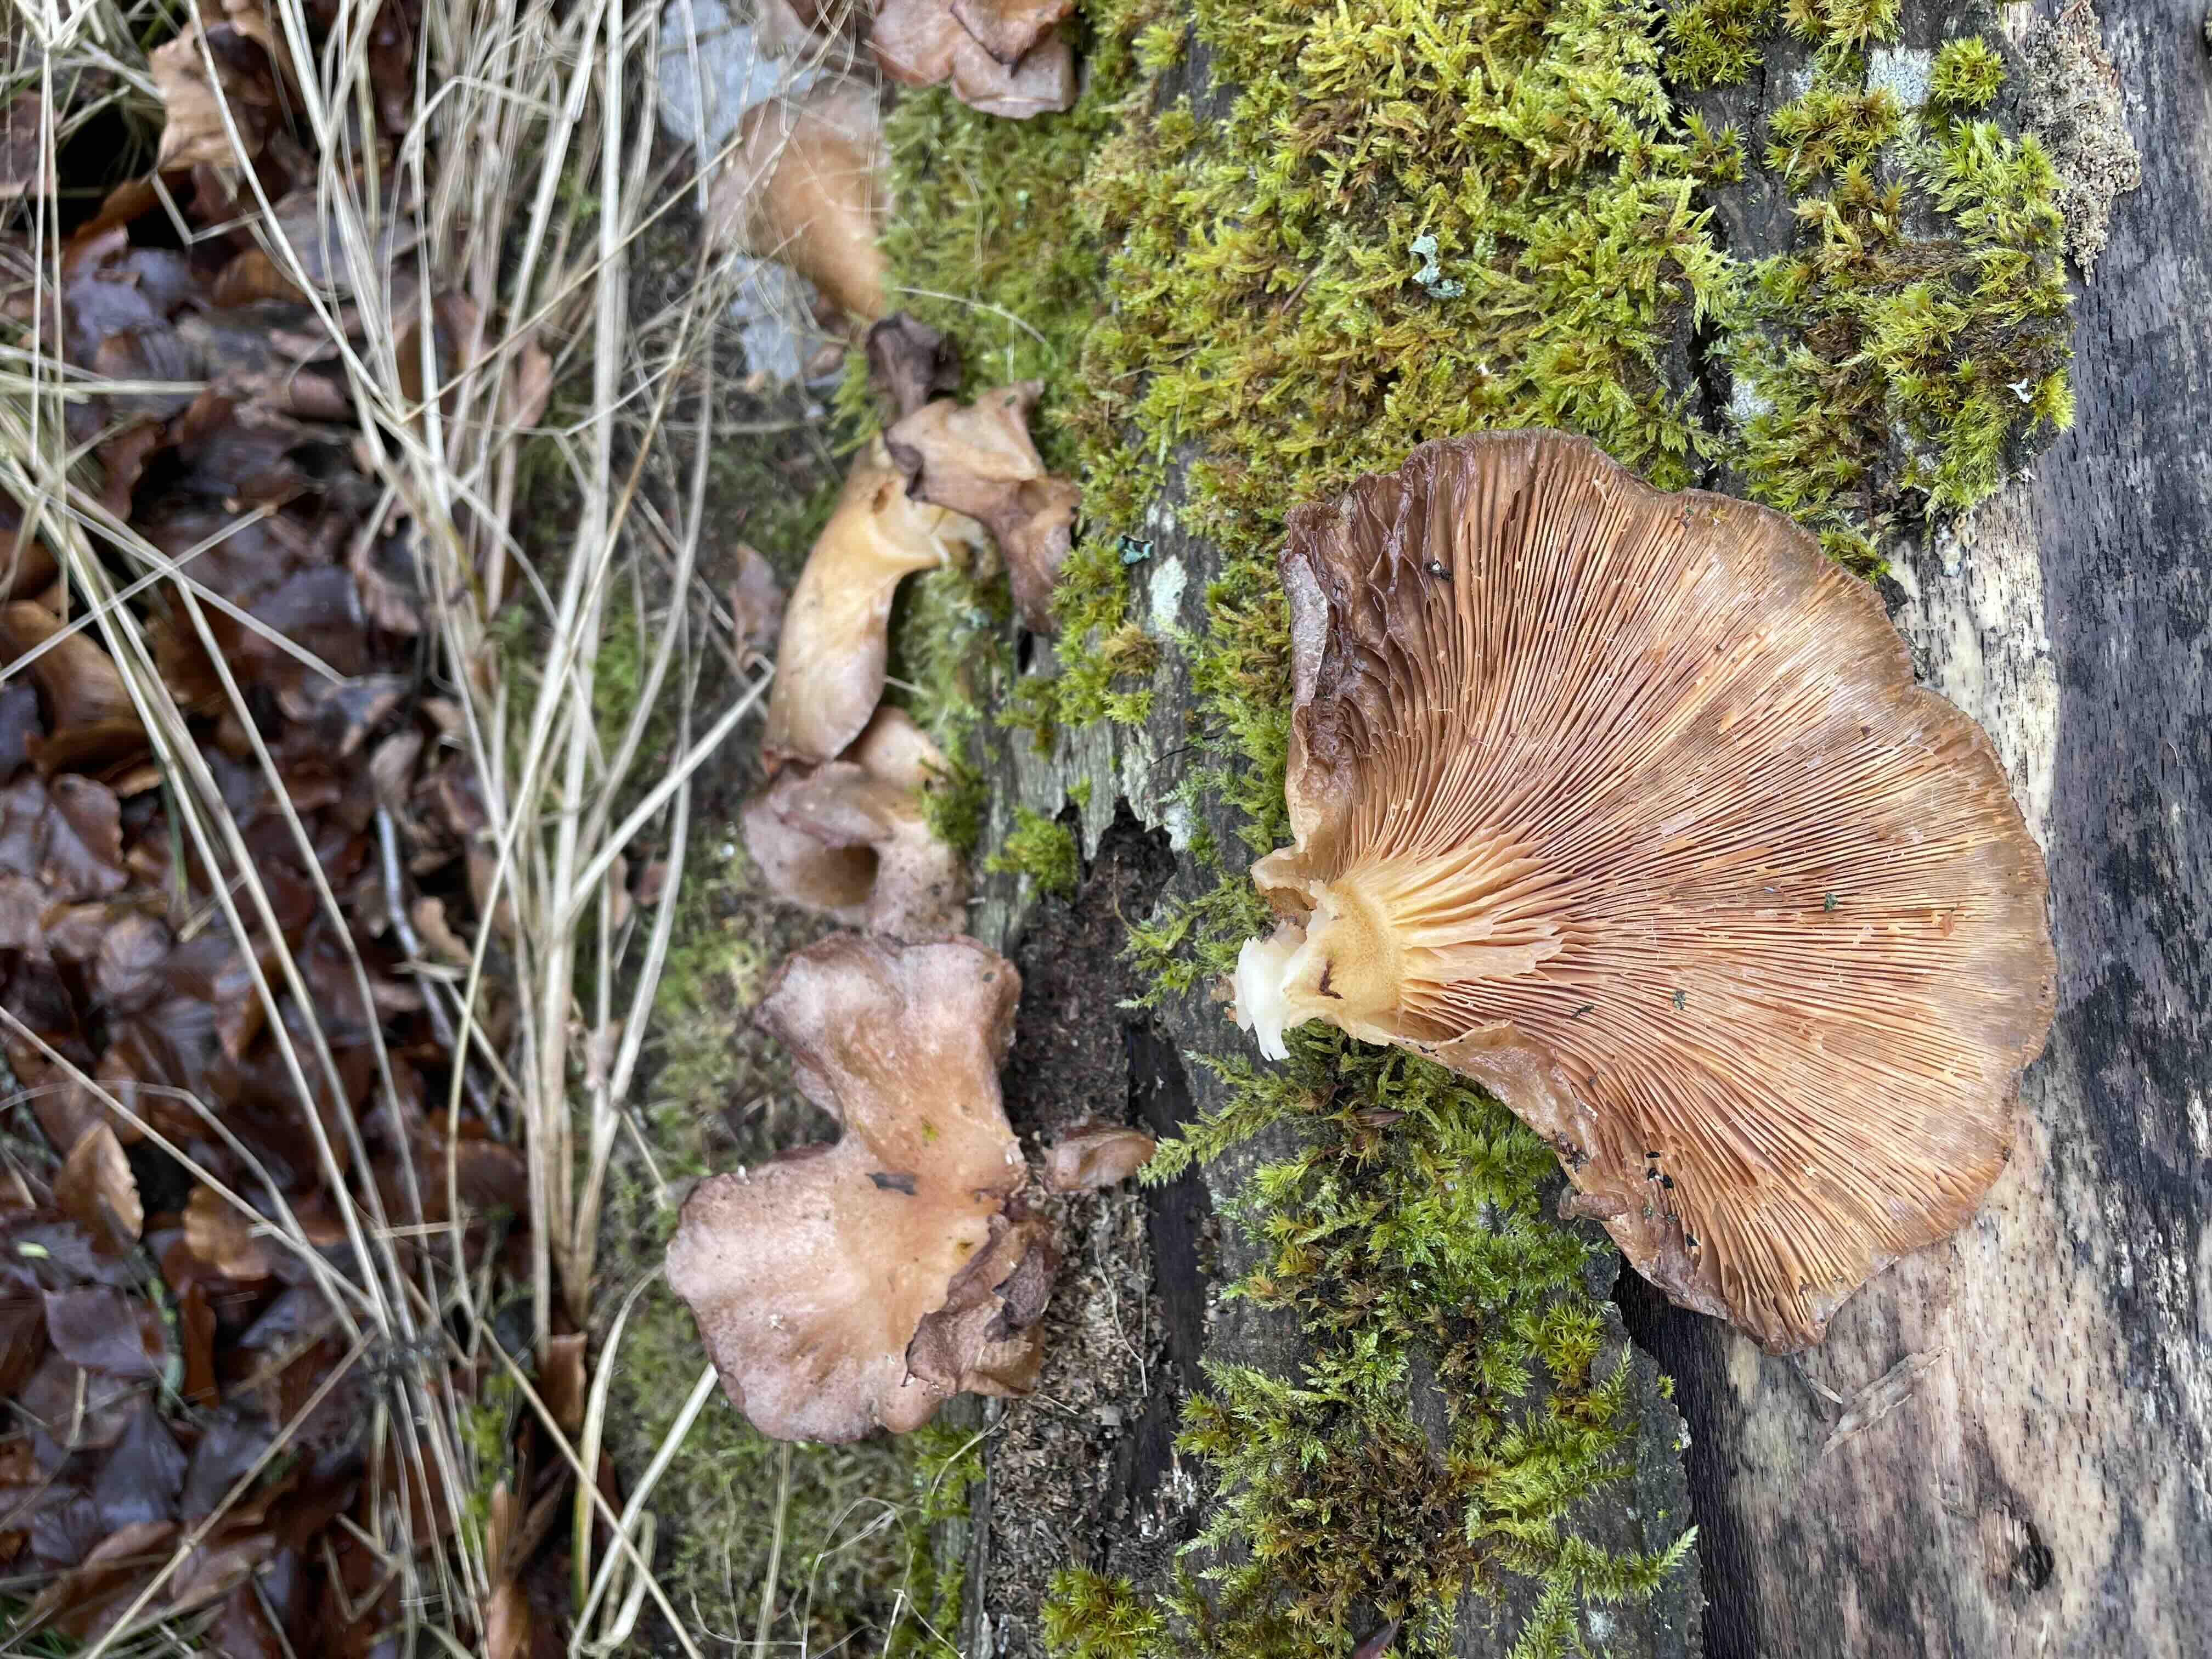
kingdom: Fungi
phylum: Basidiomycota
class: Agaricomycetes
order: Agaricales
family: Pleurotaceae
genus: Pleurotus
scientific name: Pleurotus ostreatus
